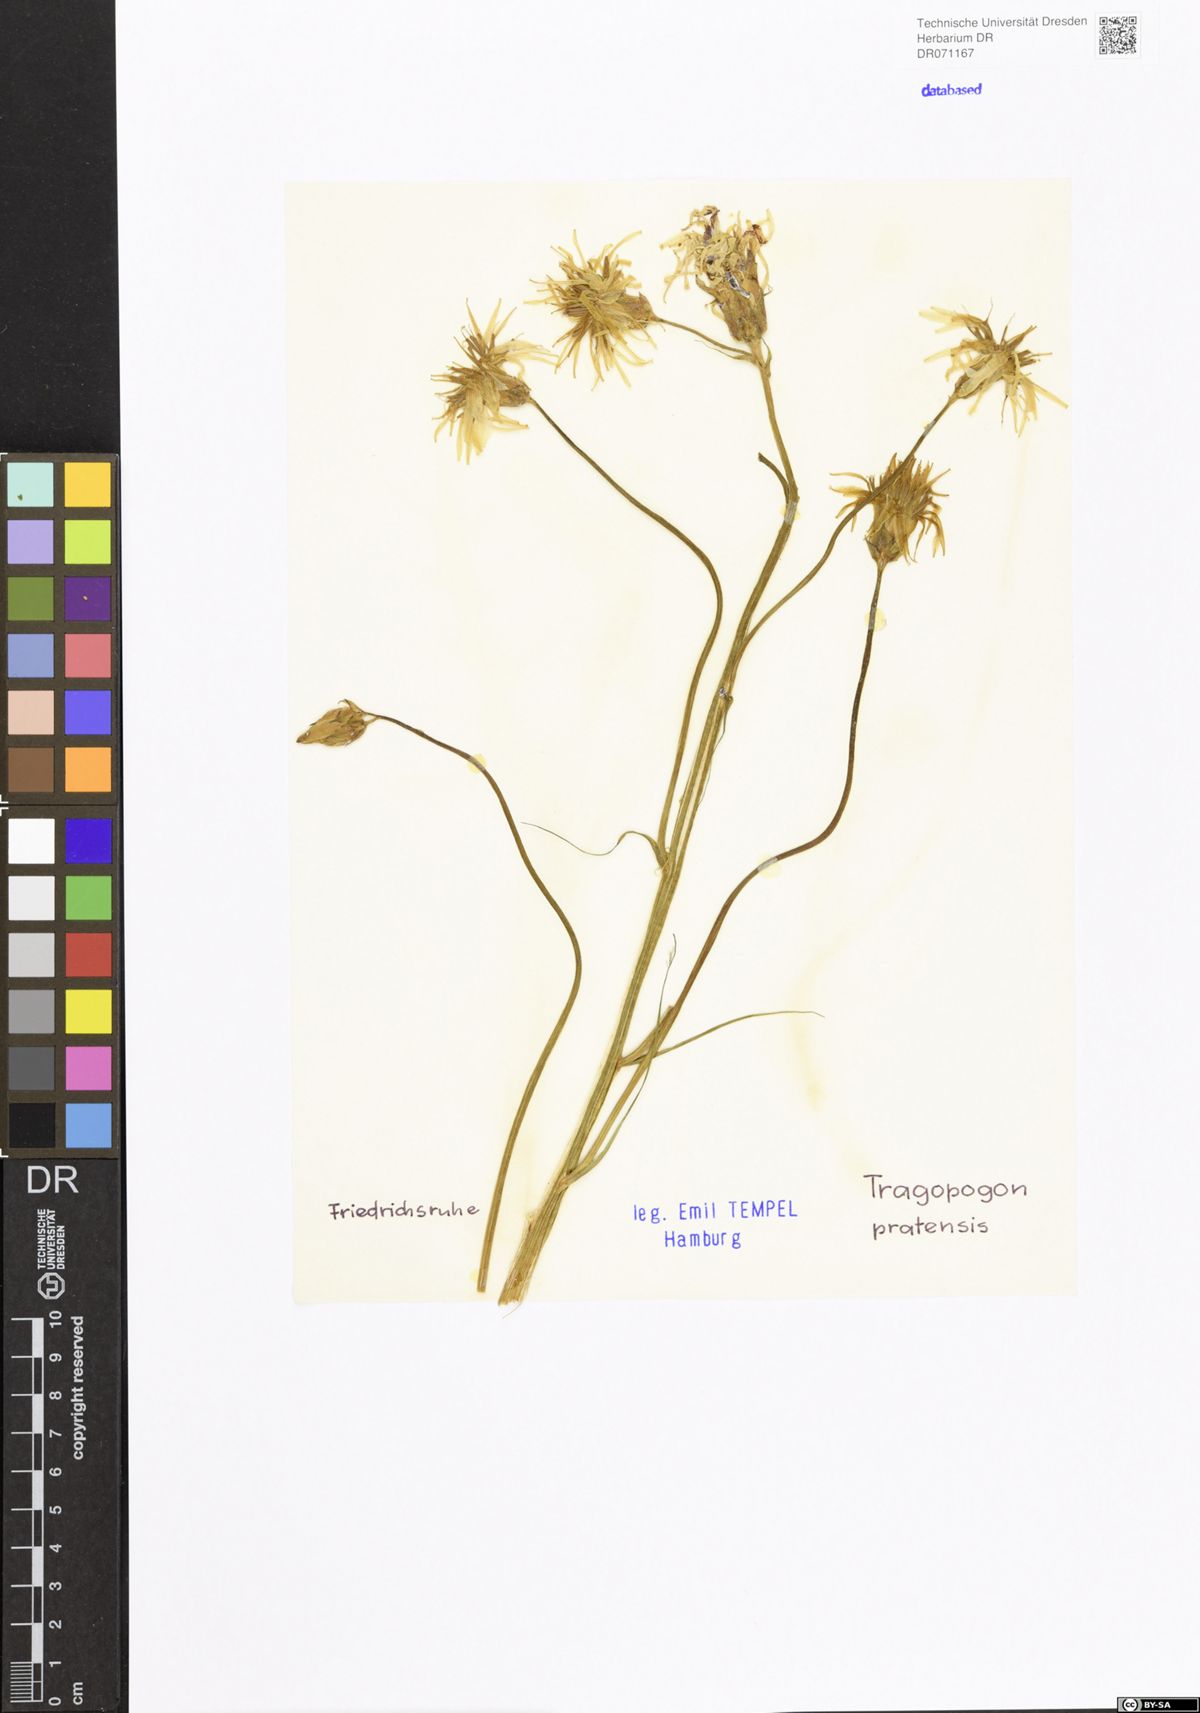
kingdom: Plantae
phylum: Tracheophyta
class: Magnoliopsida
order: Asterales
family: Asteraceae
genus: Tragopogon
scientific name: Tragopogon pratensis
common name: Goat's-beard
